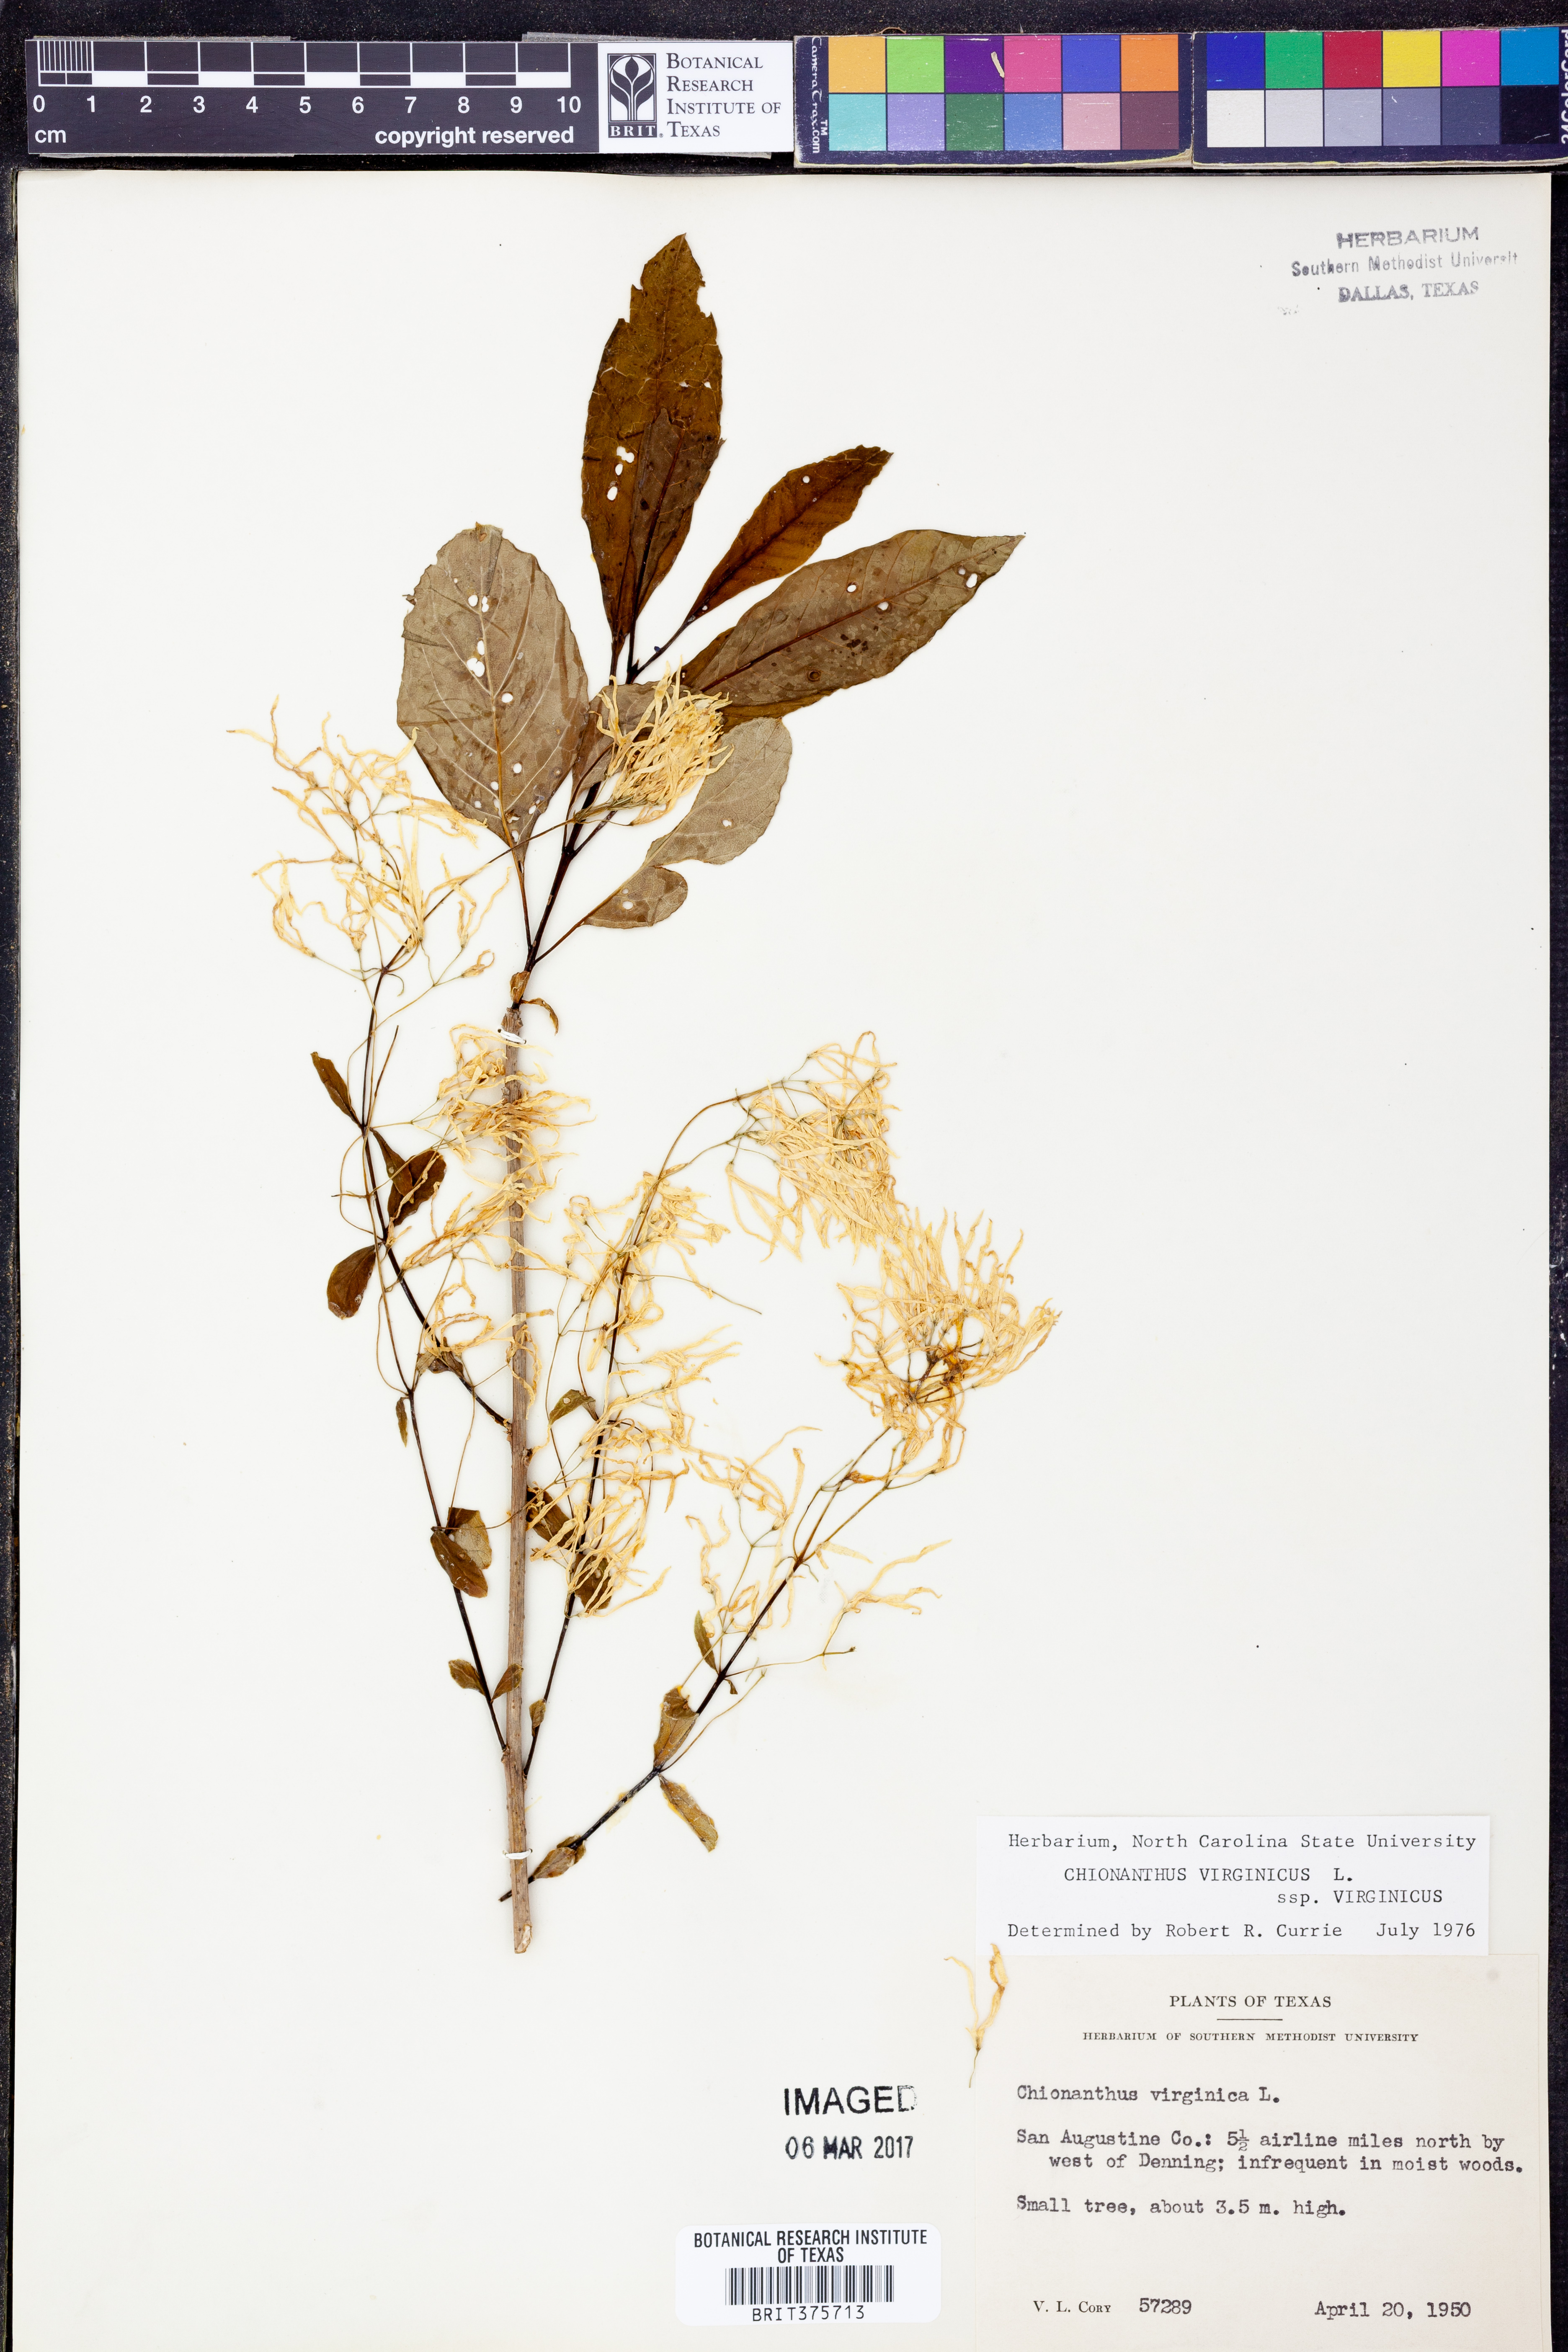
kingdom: Plantae
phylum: Tracheophyta
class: Magnoliopsida
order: Lamiales
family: Oleaceae
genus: Chionanthus
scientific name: Chionanthus virginicus
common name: American fringetree
